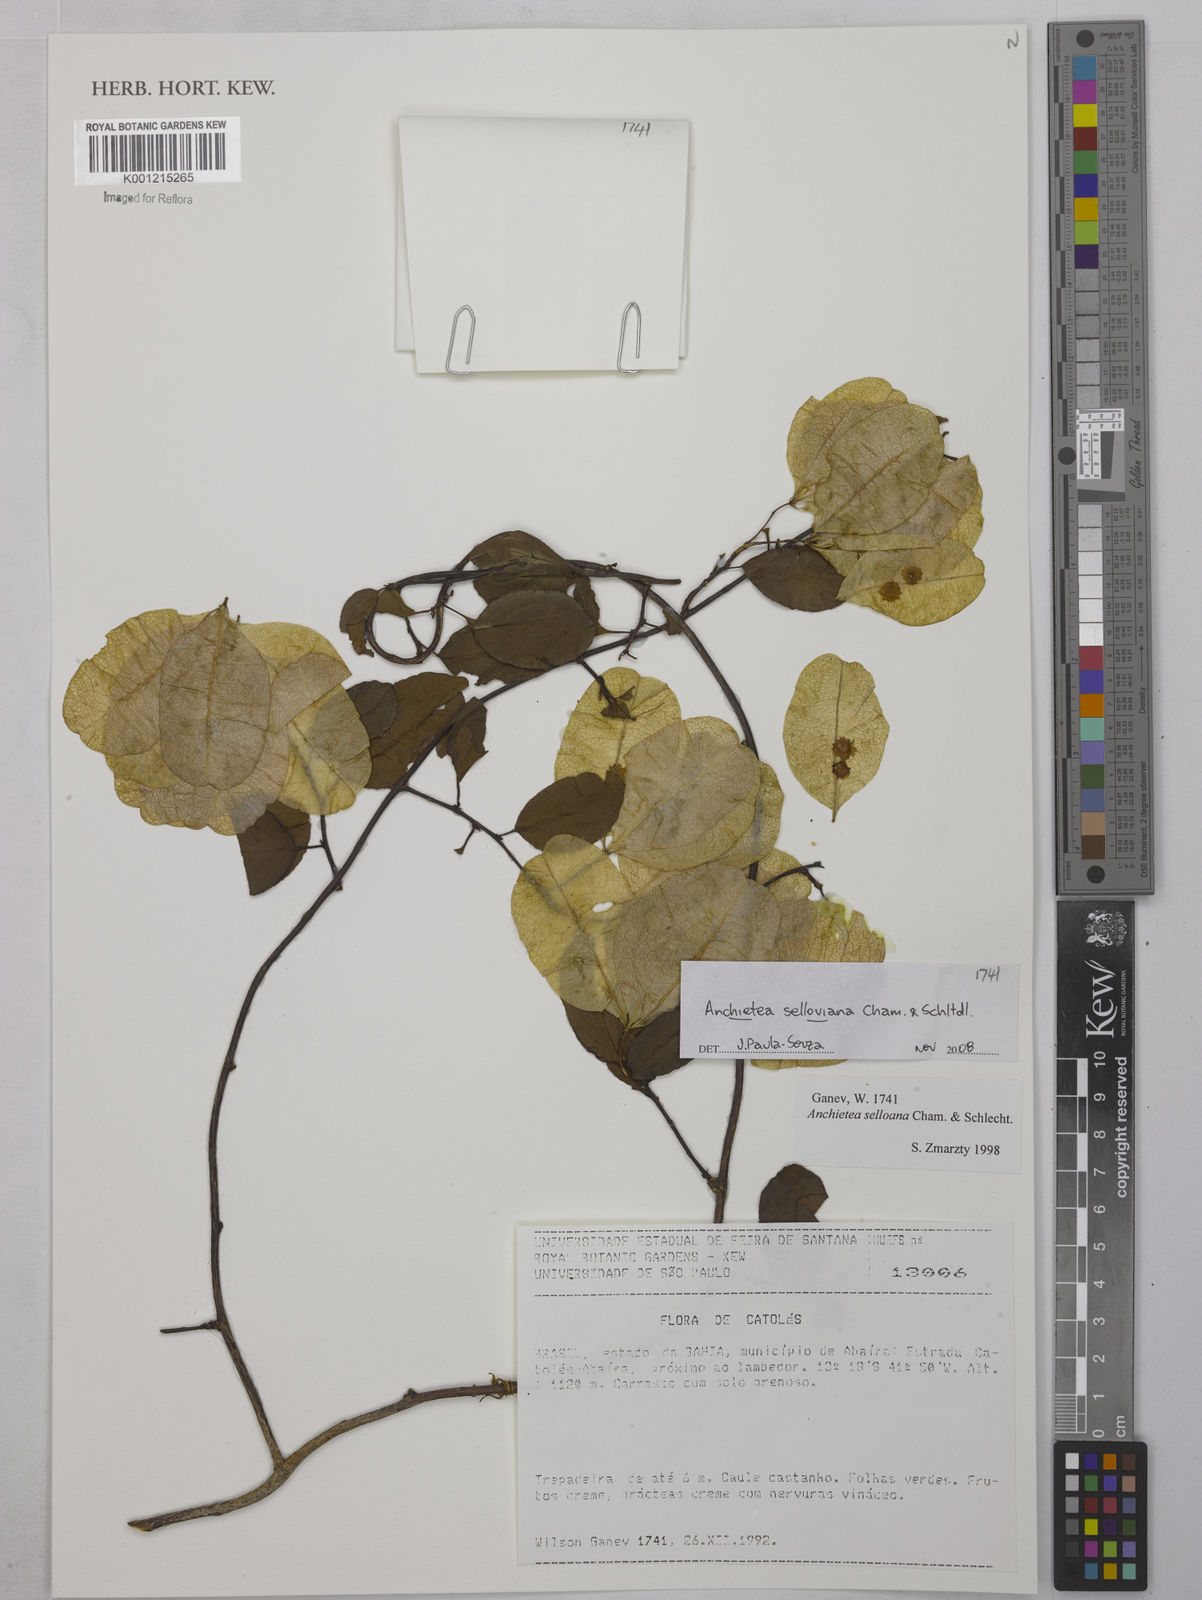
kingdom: Plantae
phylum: Tracheophyta
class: Magnoliopsida
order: Malpighiales
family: Violaceae
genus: Anchietea
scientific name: Anchietea sellowiana
